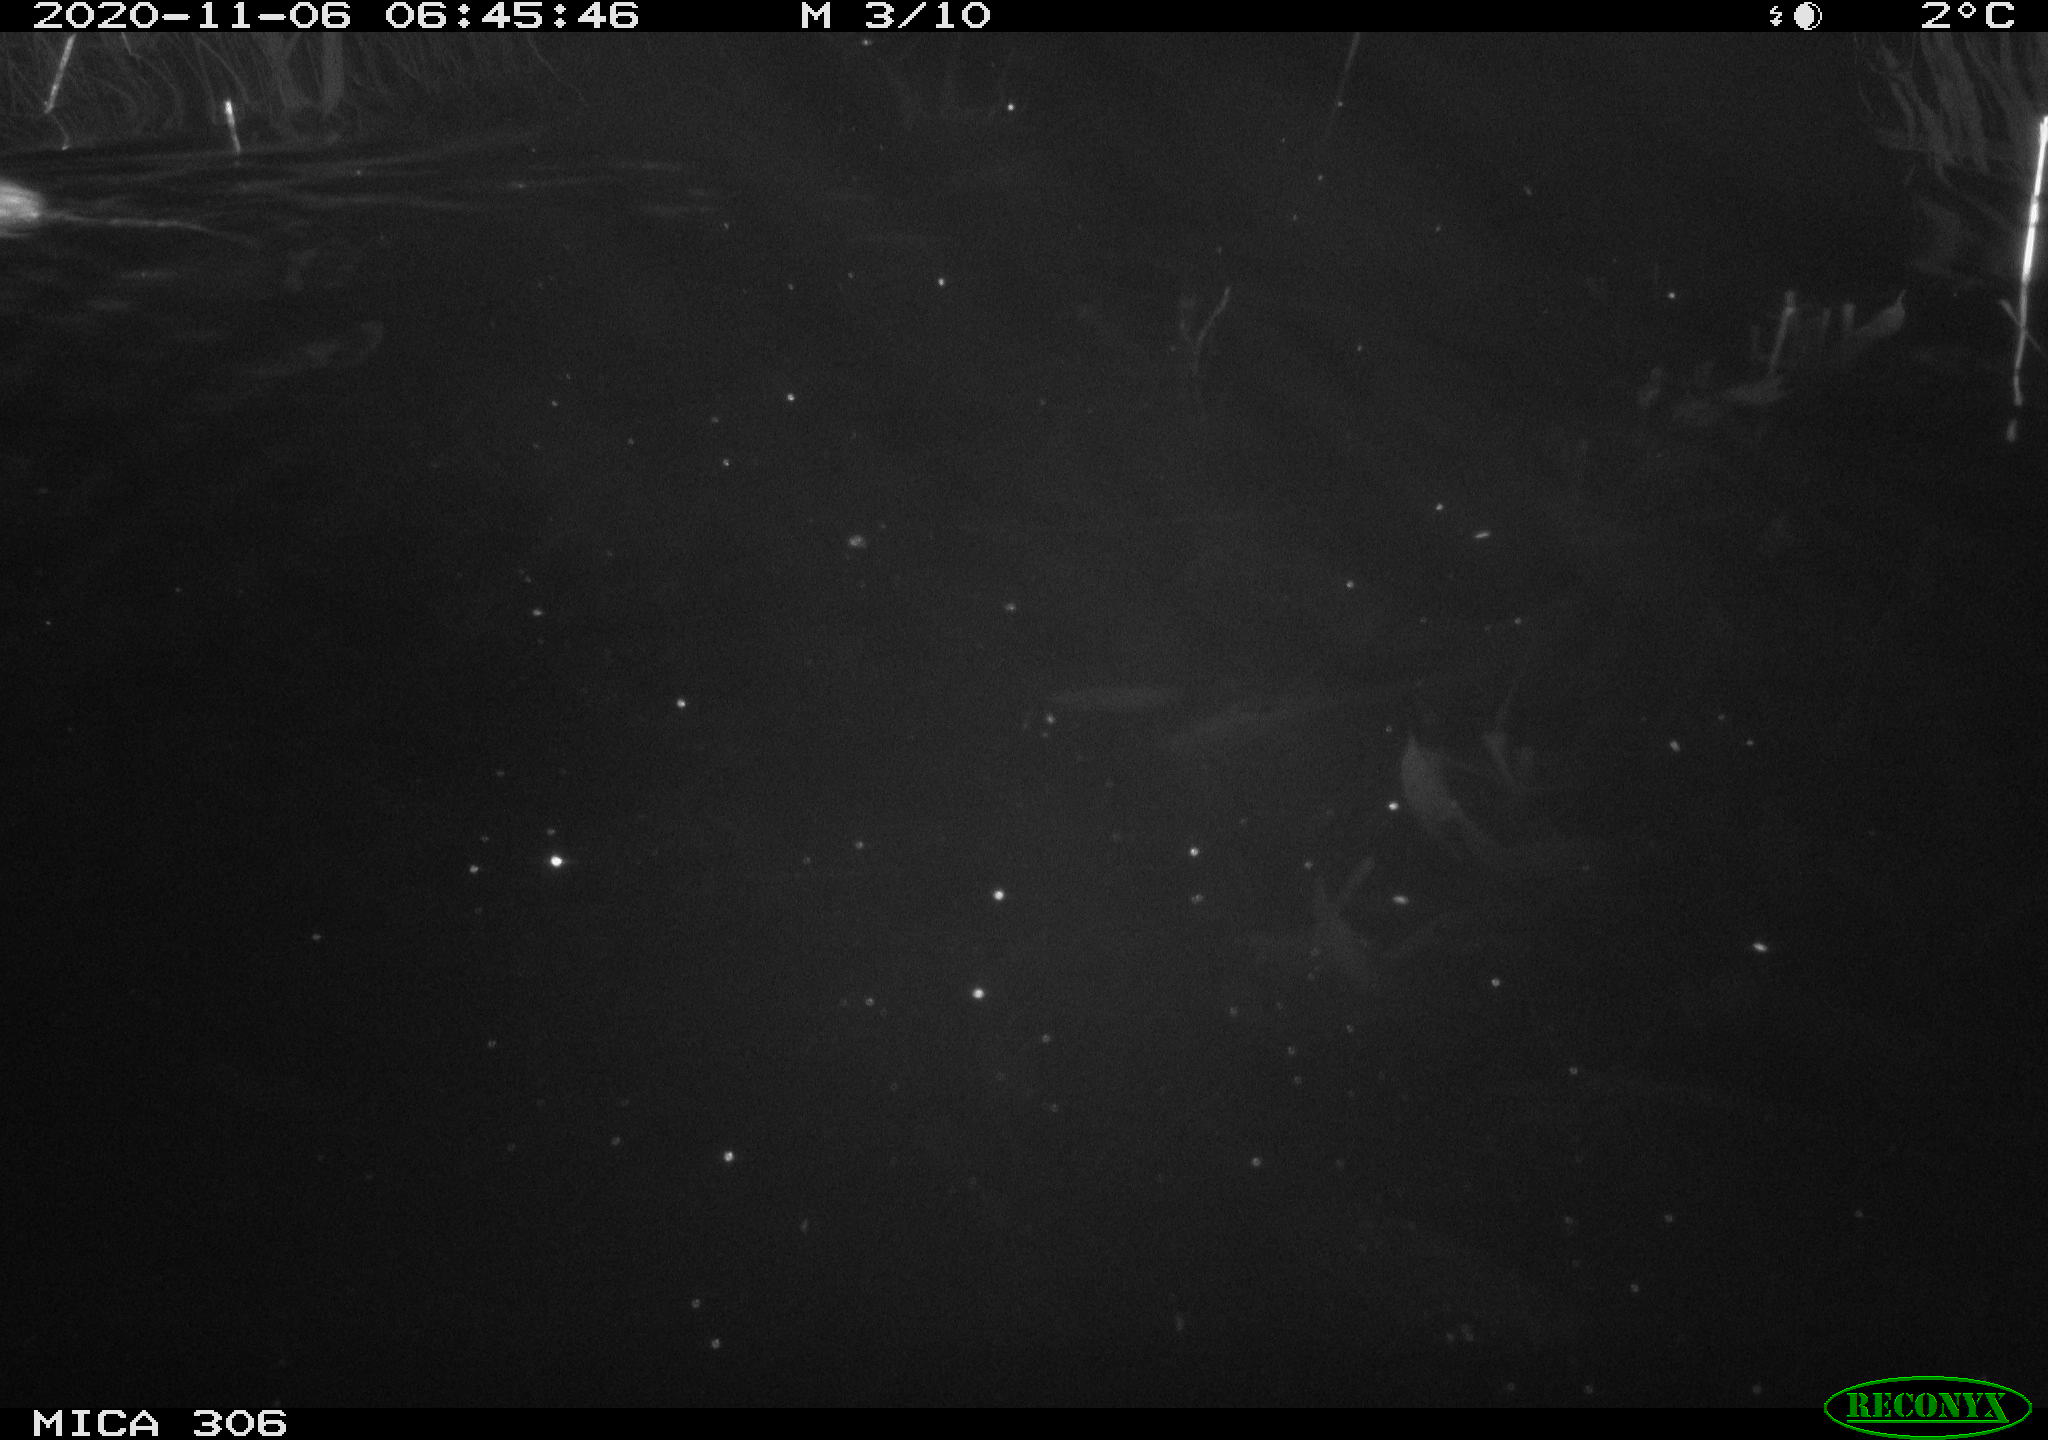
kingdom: Animalia
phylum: Chordata
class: Mammalia
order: Rodentia
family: Muridae
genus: Rattus
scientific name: Rattus norvegicus
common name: Brown rat
